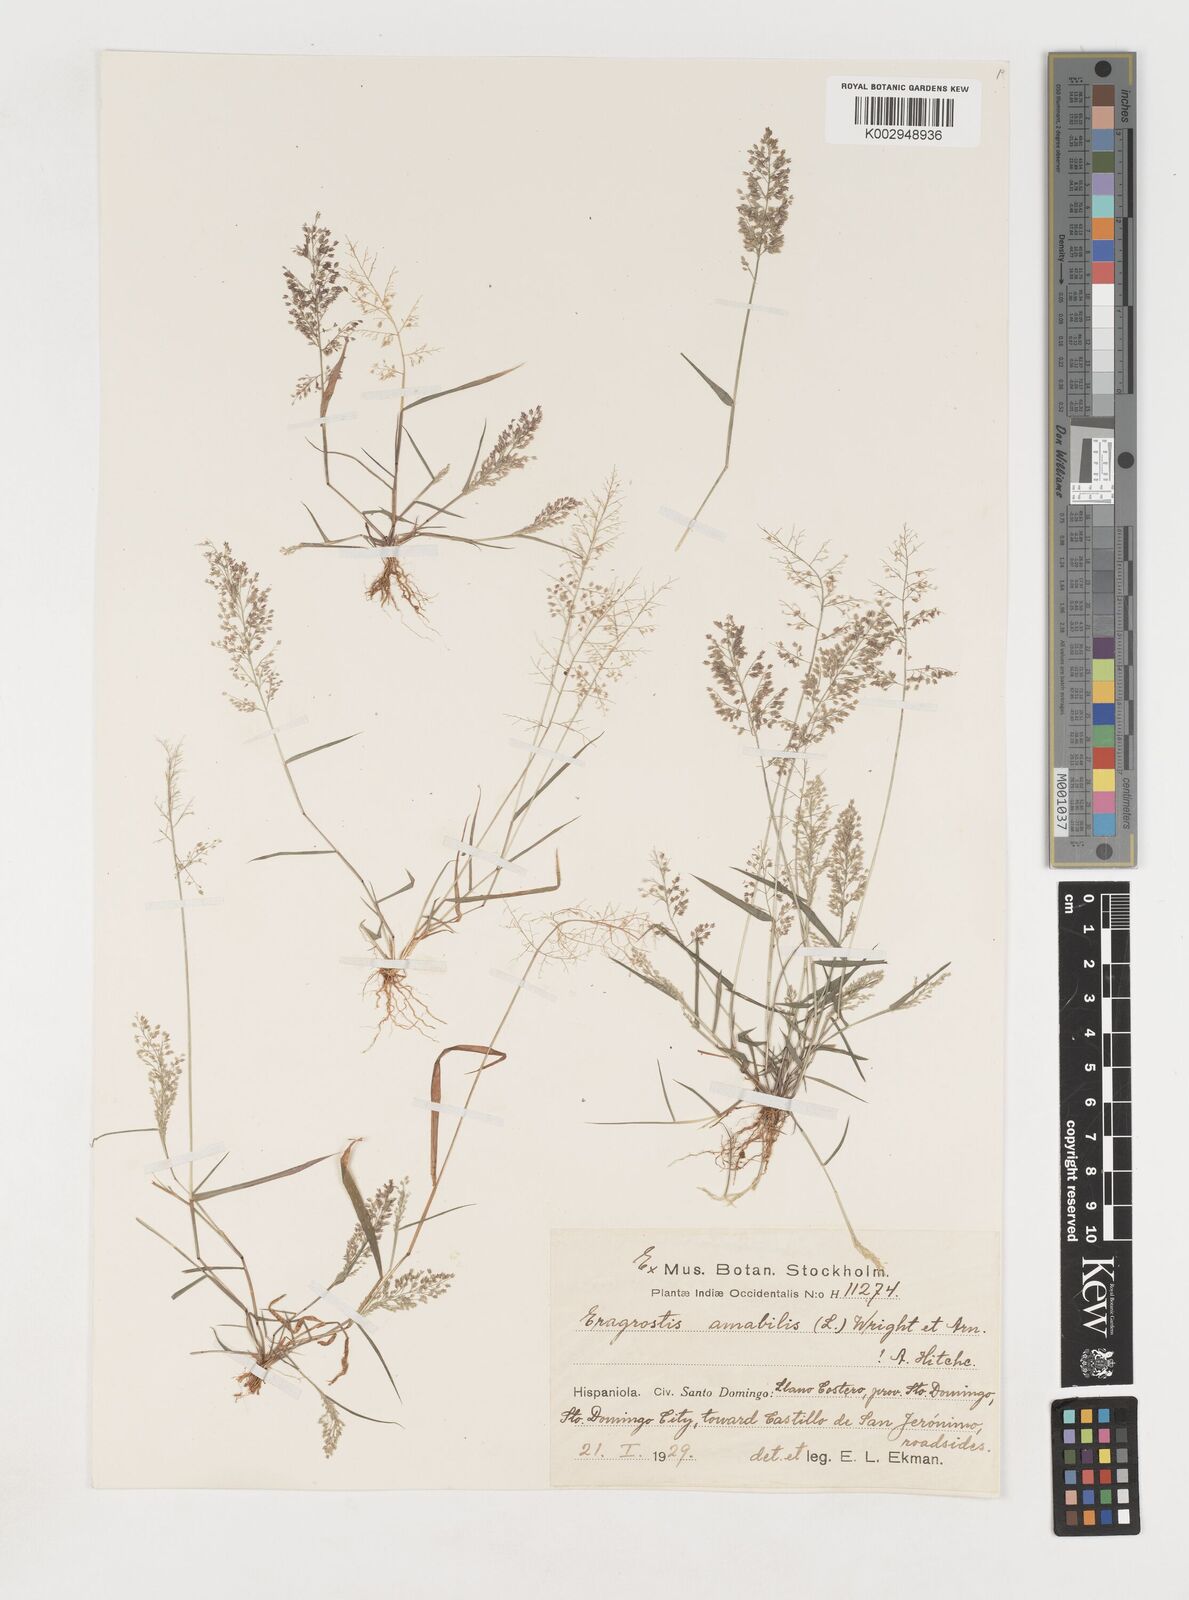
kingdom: Plantae
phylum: Tracheophyta
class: Liliopsida
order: Poales
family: Poaceae
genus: Eragrostis
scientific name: Eragrostis
